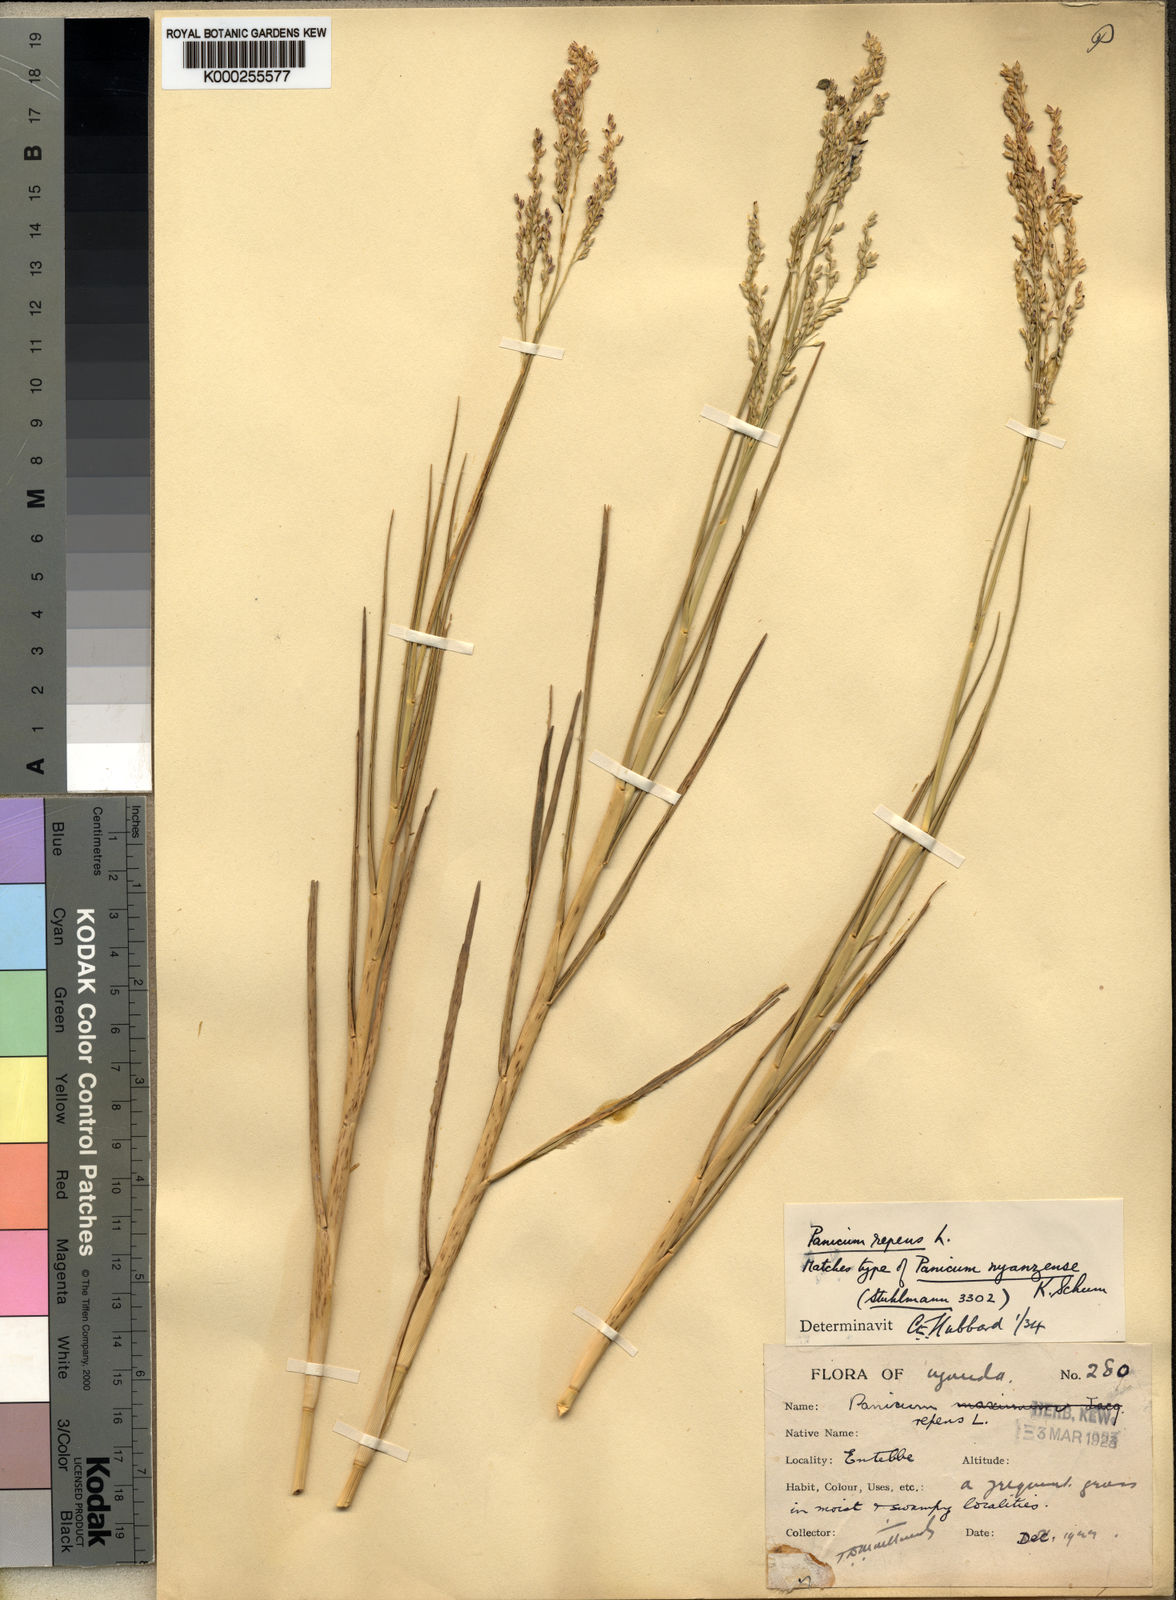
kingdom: Plantae
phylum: Tracheophyta
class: Liliopsida
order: Poales
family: Poaceae
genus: Panicum
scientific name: Panicum repens
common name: Torpedo grass
